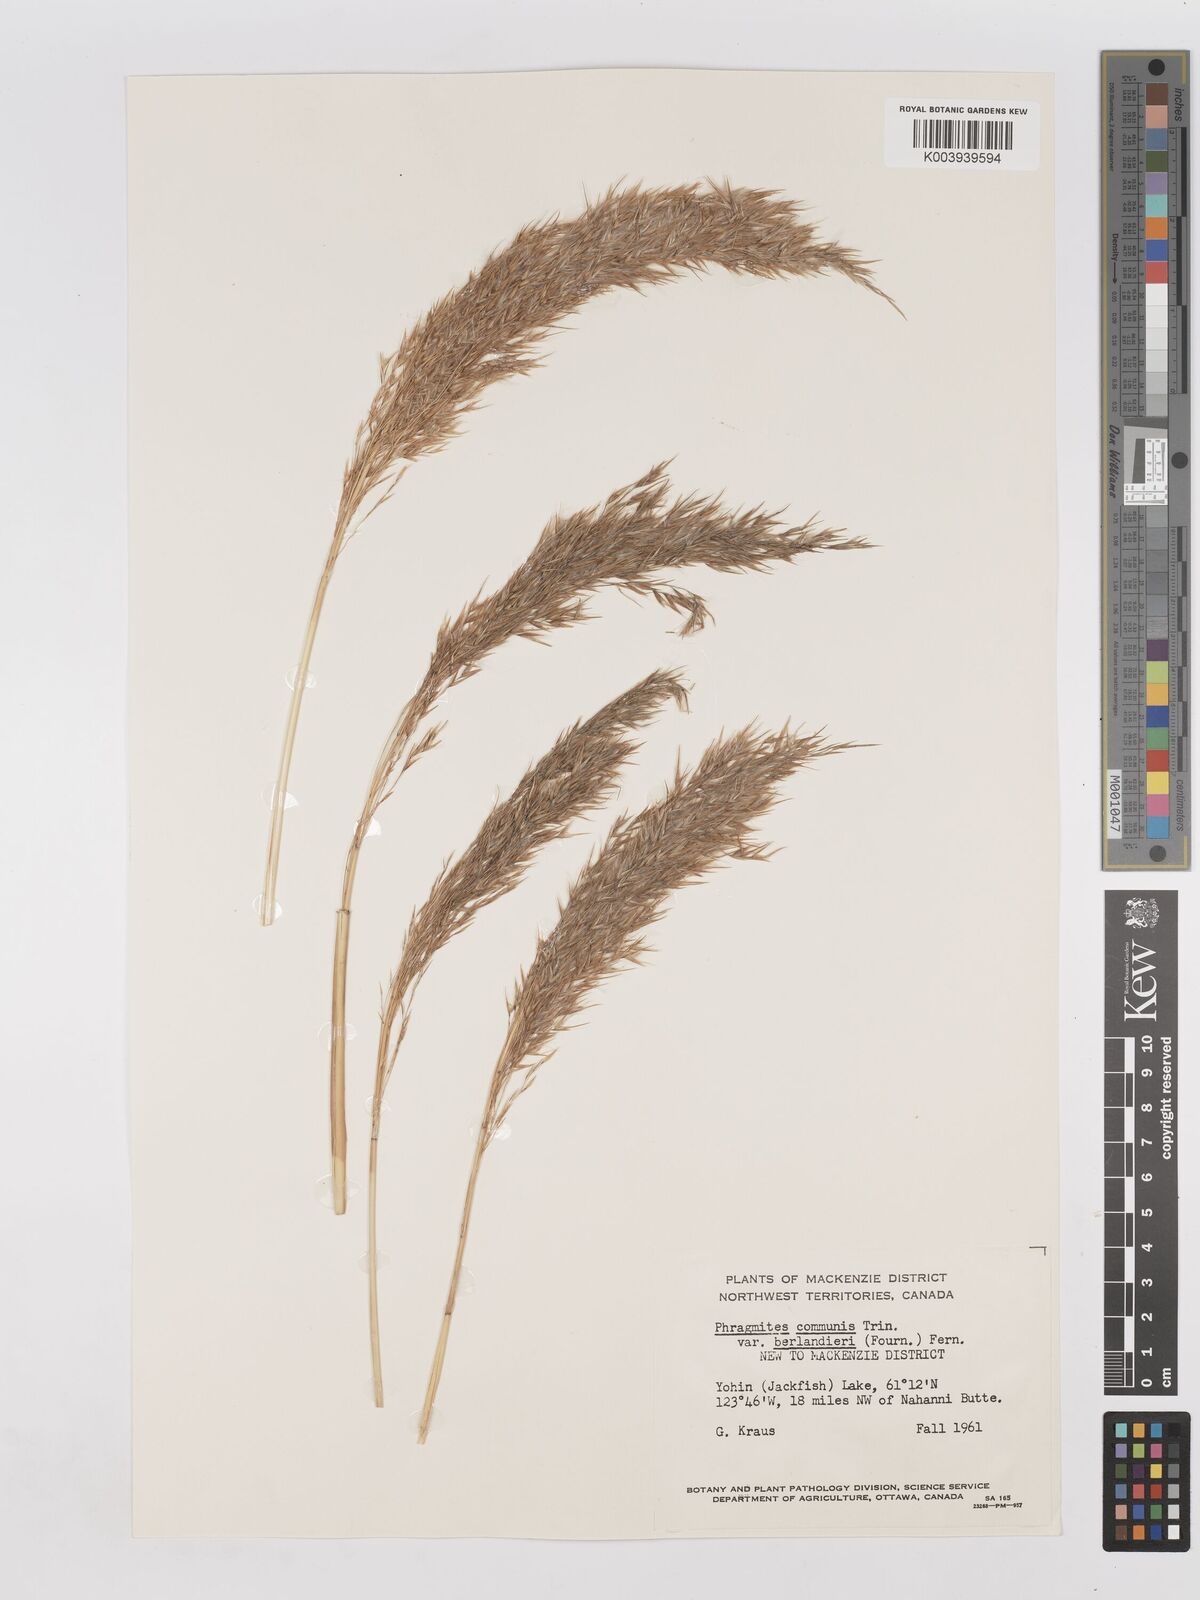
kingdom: Plantae
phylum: Tracheophyta
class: Liliopsida
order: Poales
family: Poaceae
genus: Phragmites
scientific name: Phragmites australis
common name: Common reed
